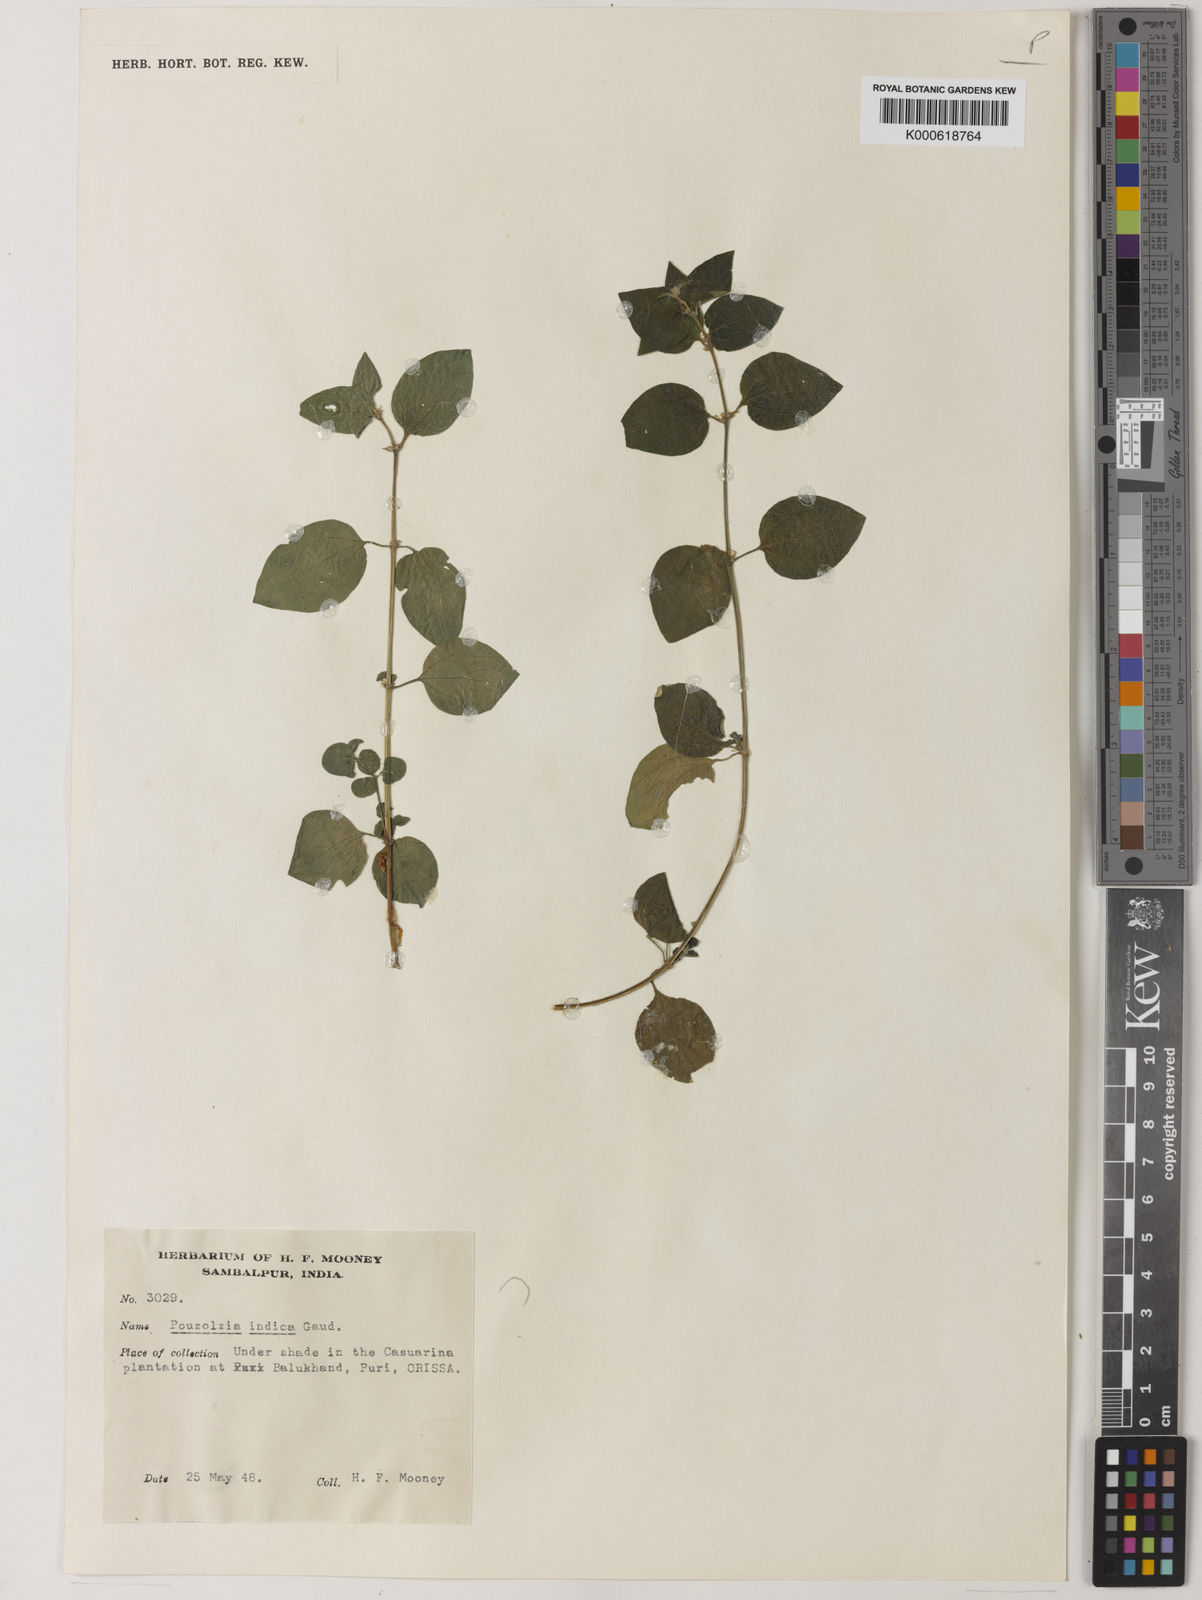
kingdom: Plantae
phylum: Tracheophyta
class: Magnoliopsida
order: Rosales
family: Urticaceae
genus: Pouzolzia
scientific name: Pouzolzia zeylanica
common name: Graceful pouzolzsbush
